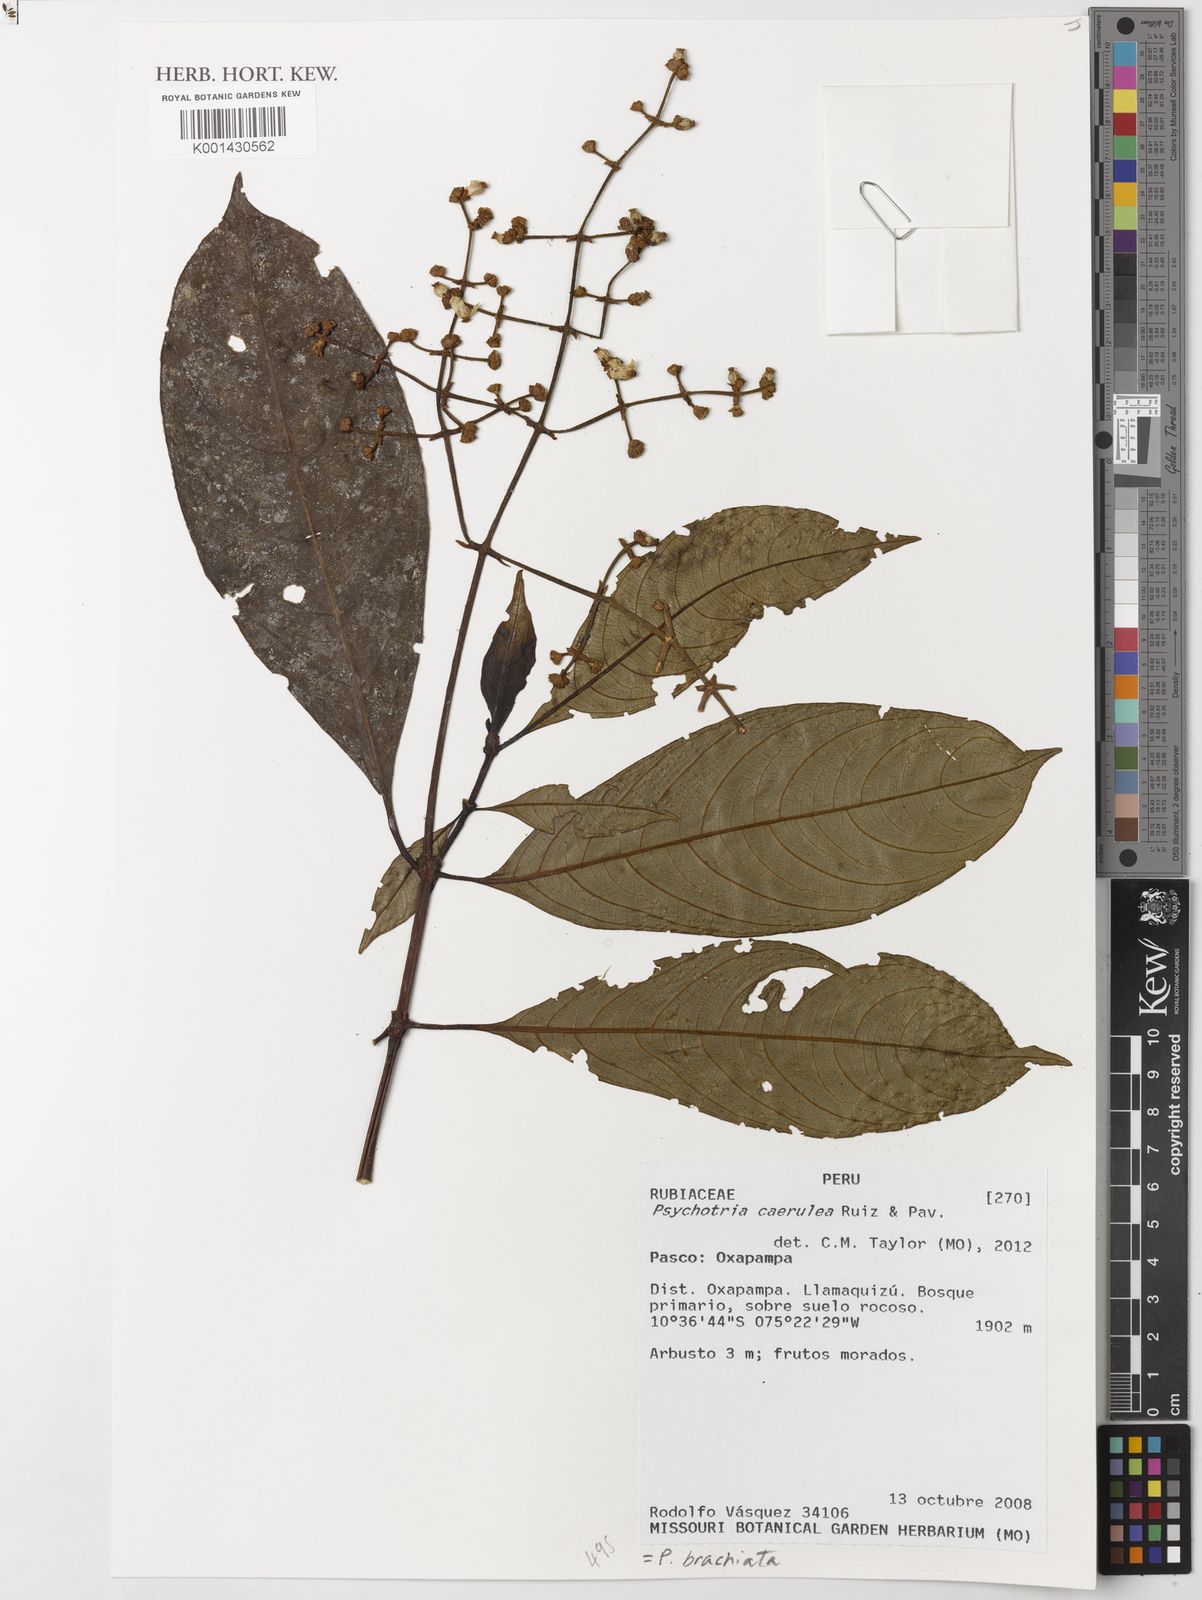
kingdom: Plantae
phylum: Tracheophyta
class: Magnoliopsida
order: Gentianales
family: Rubiaceae
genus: Rudgea
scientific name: Rudgea citrifolia
